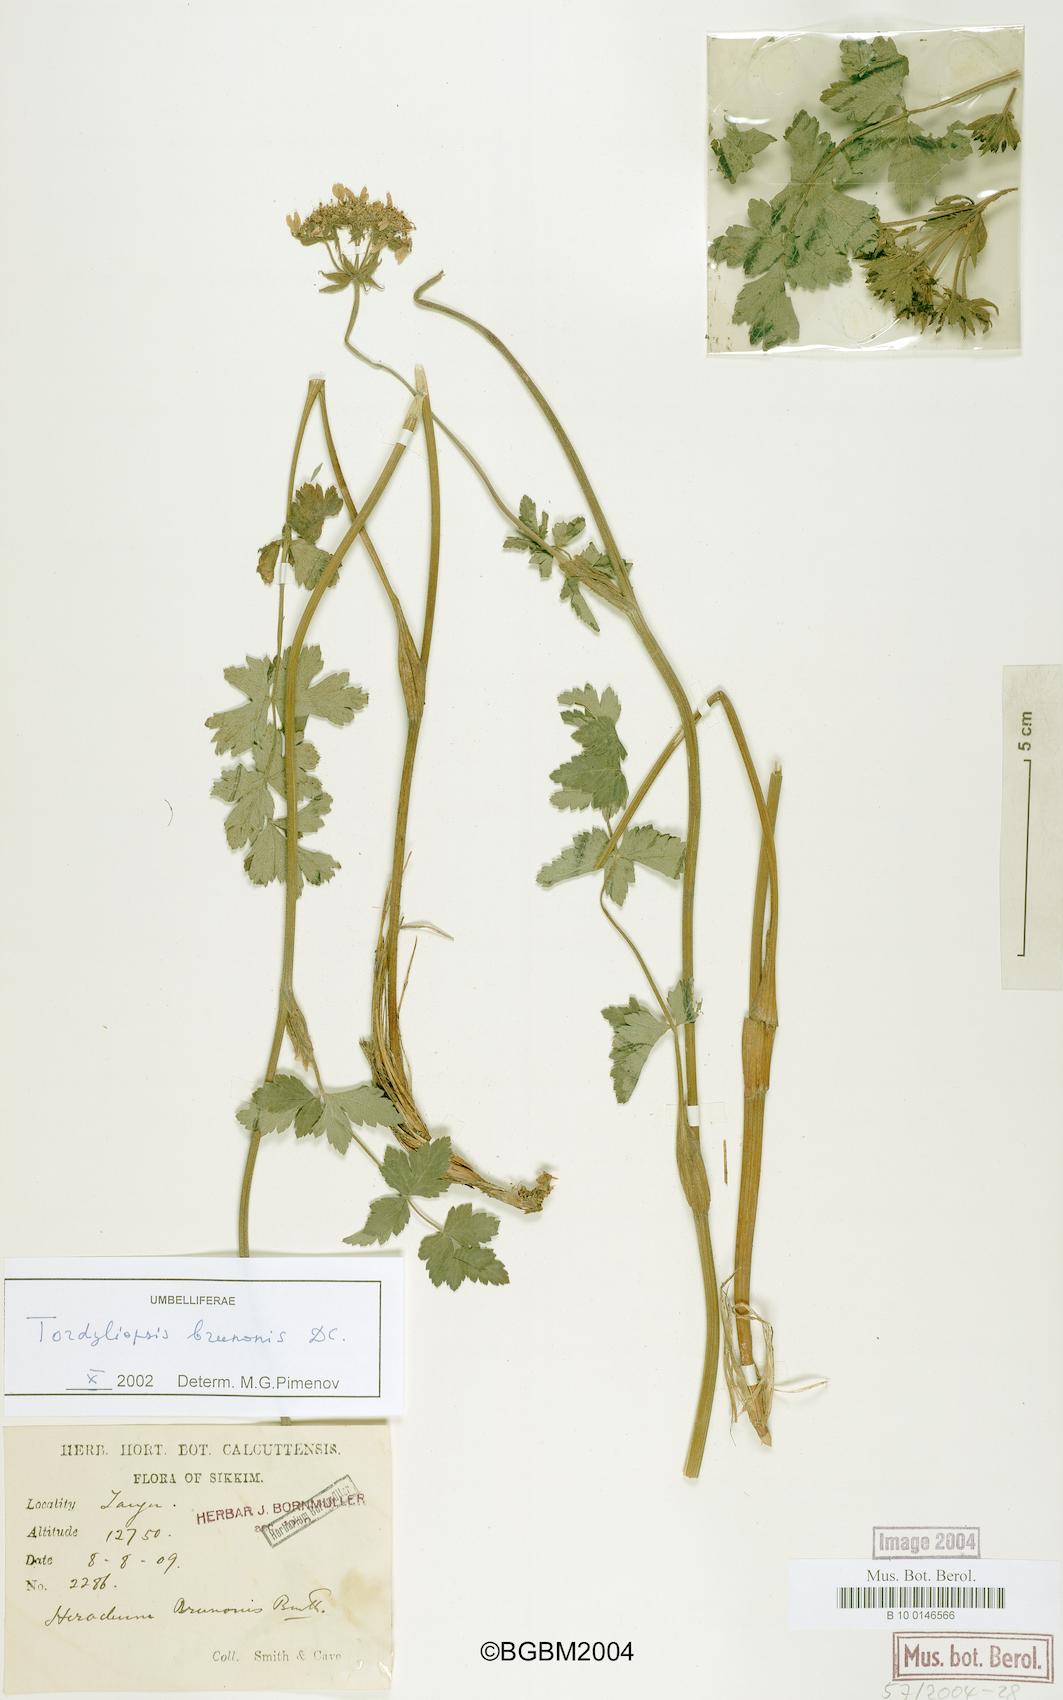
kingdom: Plantae
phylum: Tracheophyta
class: Magnoliopsida
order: Apiales
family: Apiaceae
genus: Tordyliopsis
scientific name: Tordyliopsis brunonis
